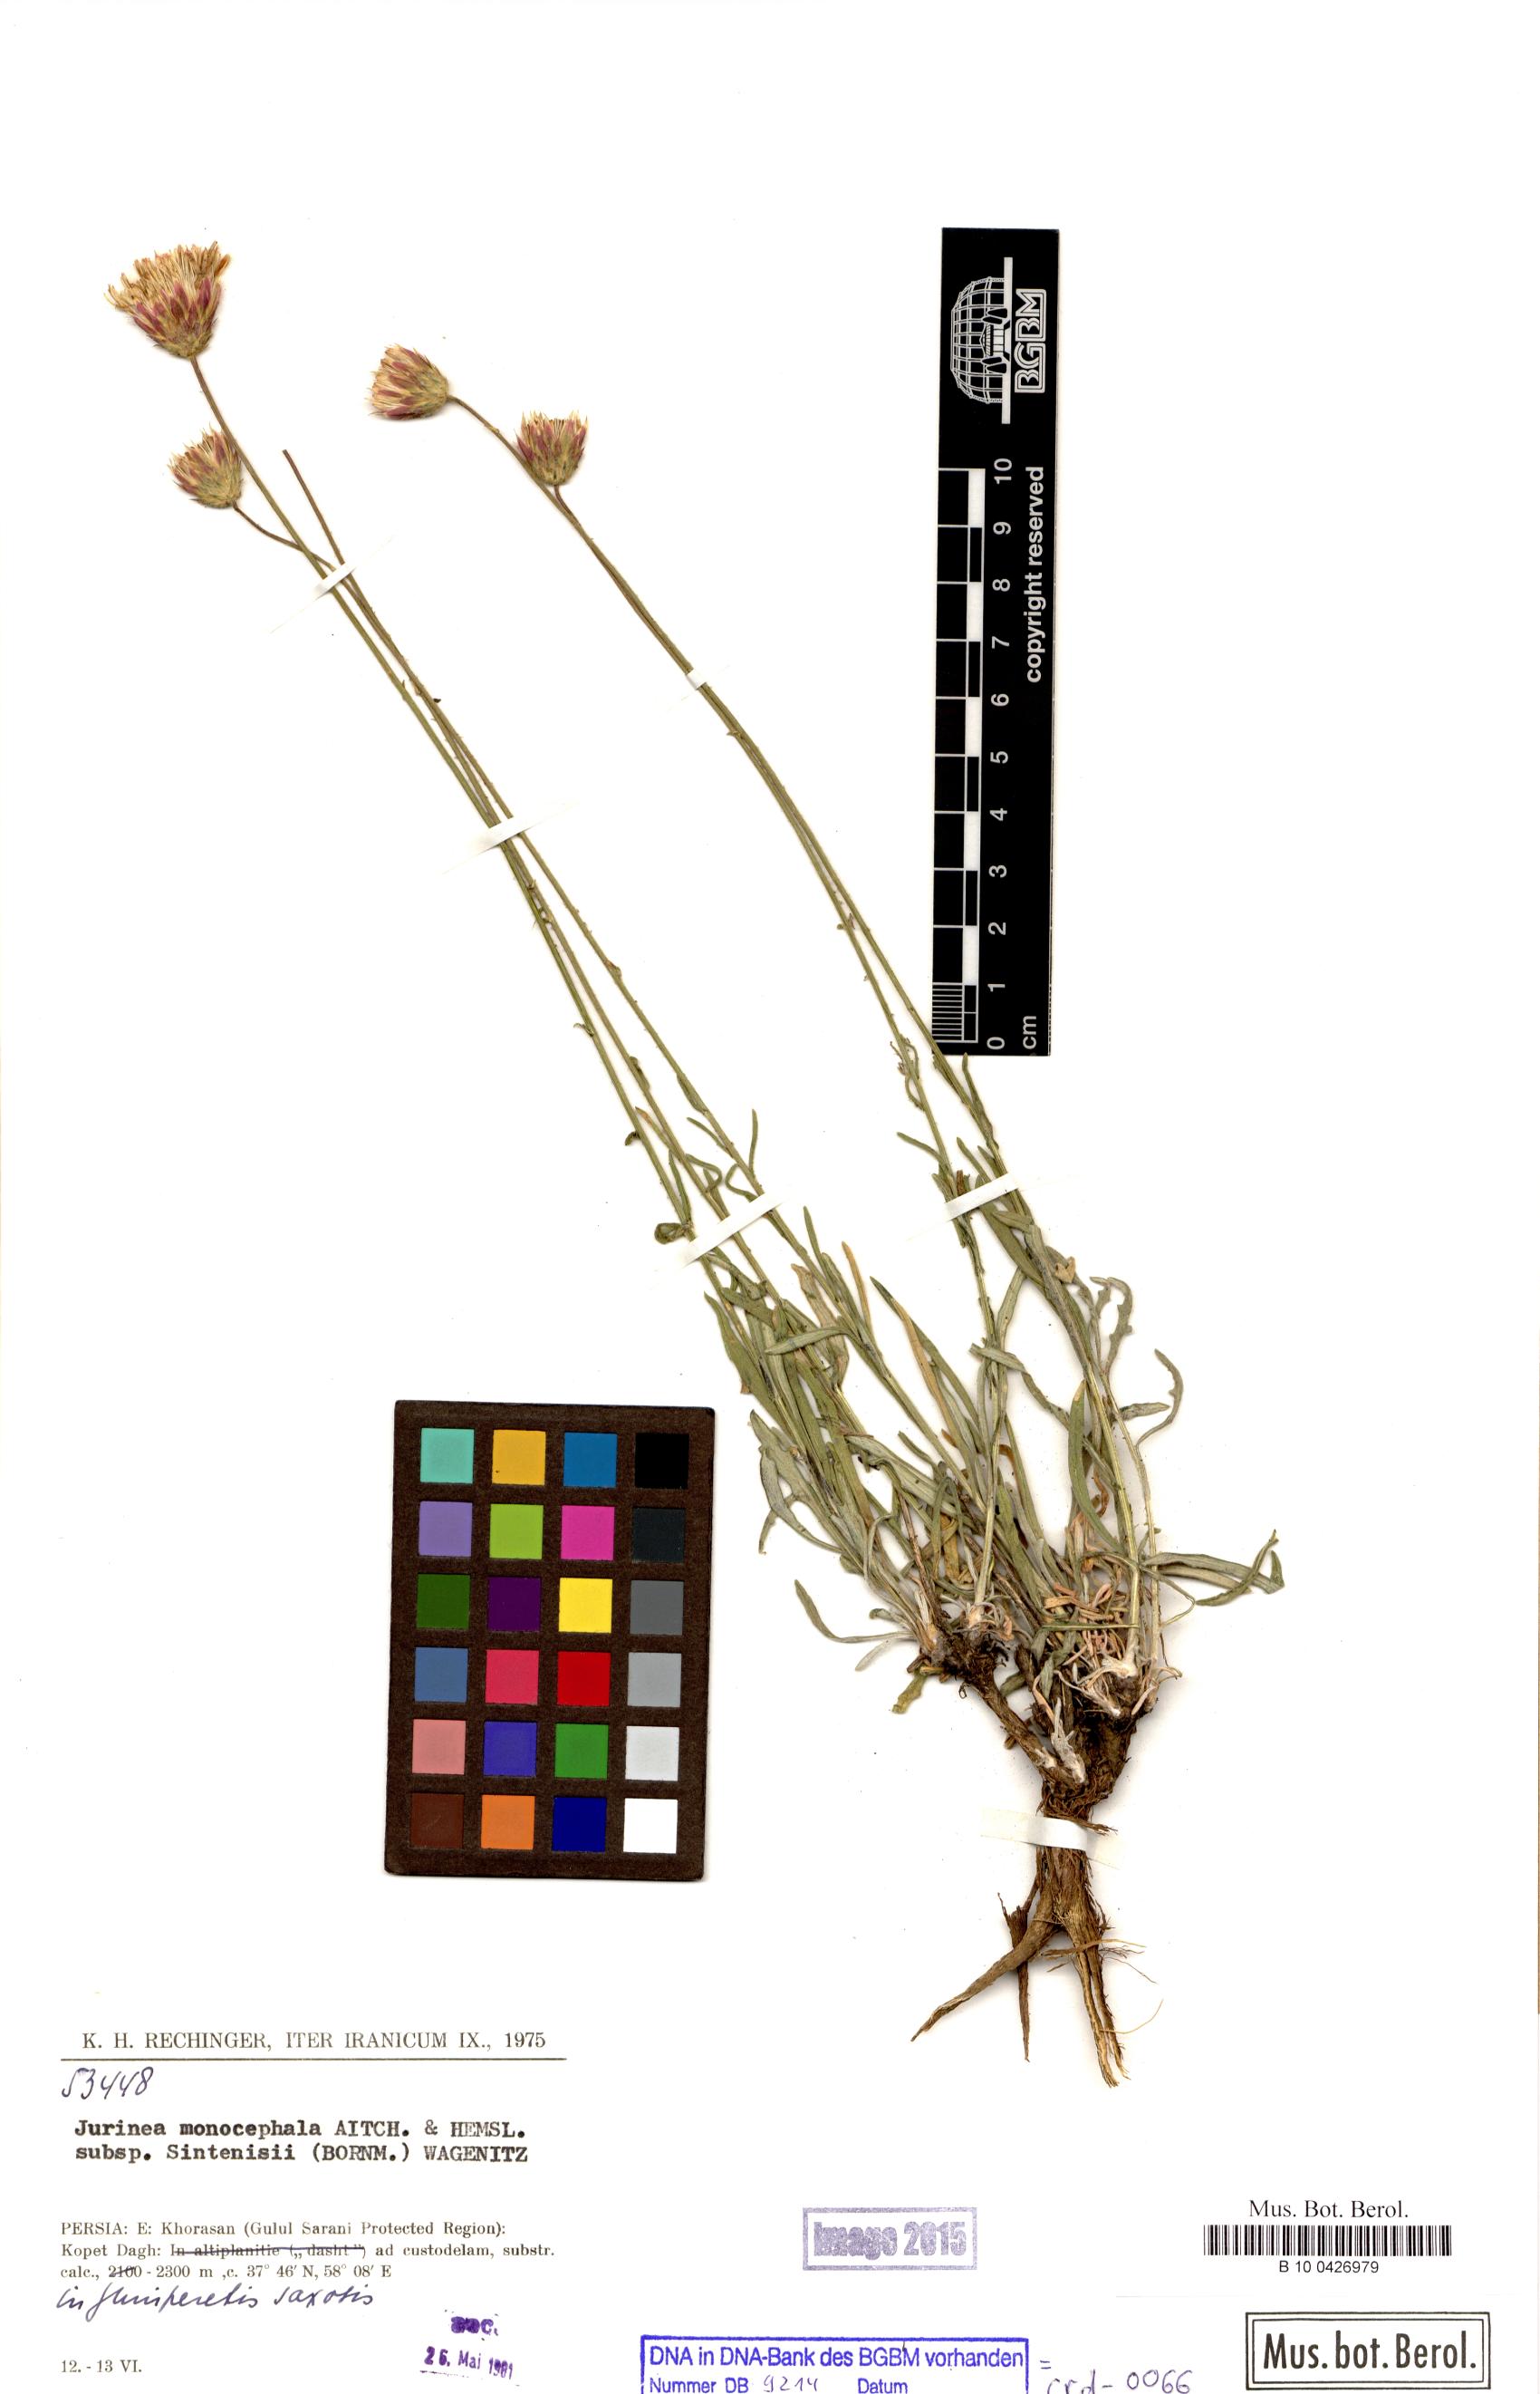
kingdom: Plantae
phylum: Tracheophyta
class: Magnoliopsida
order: Asterales
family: Asteraceae
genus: Jurinea
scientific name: Jurinea sintenisii
